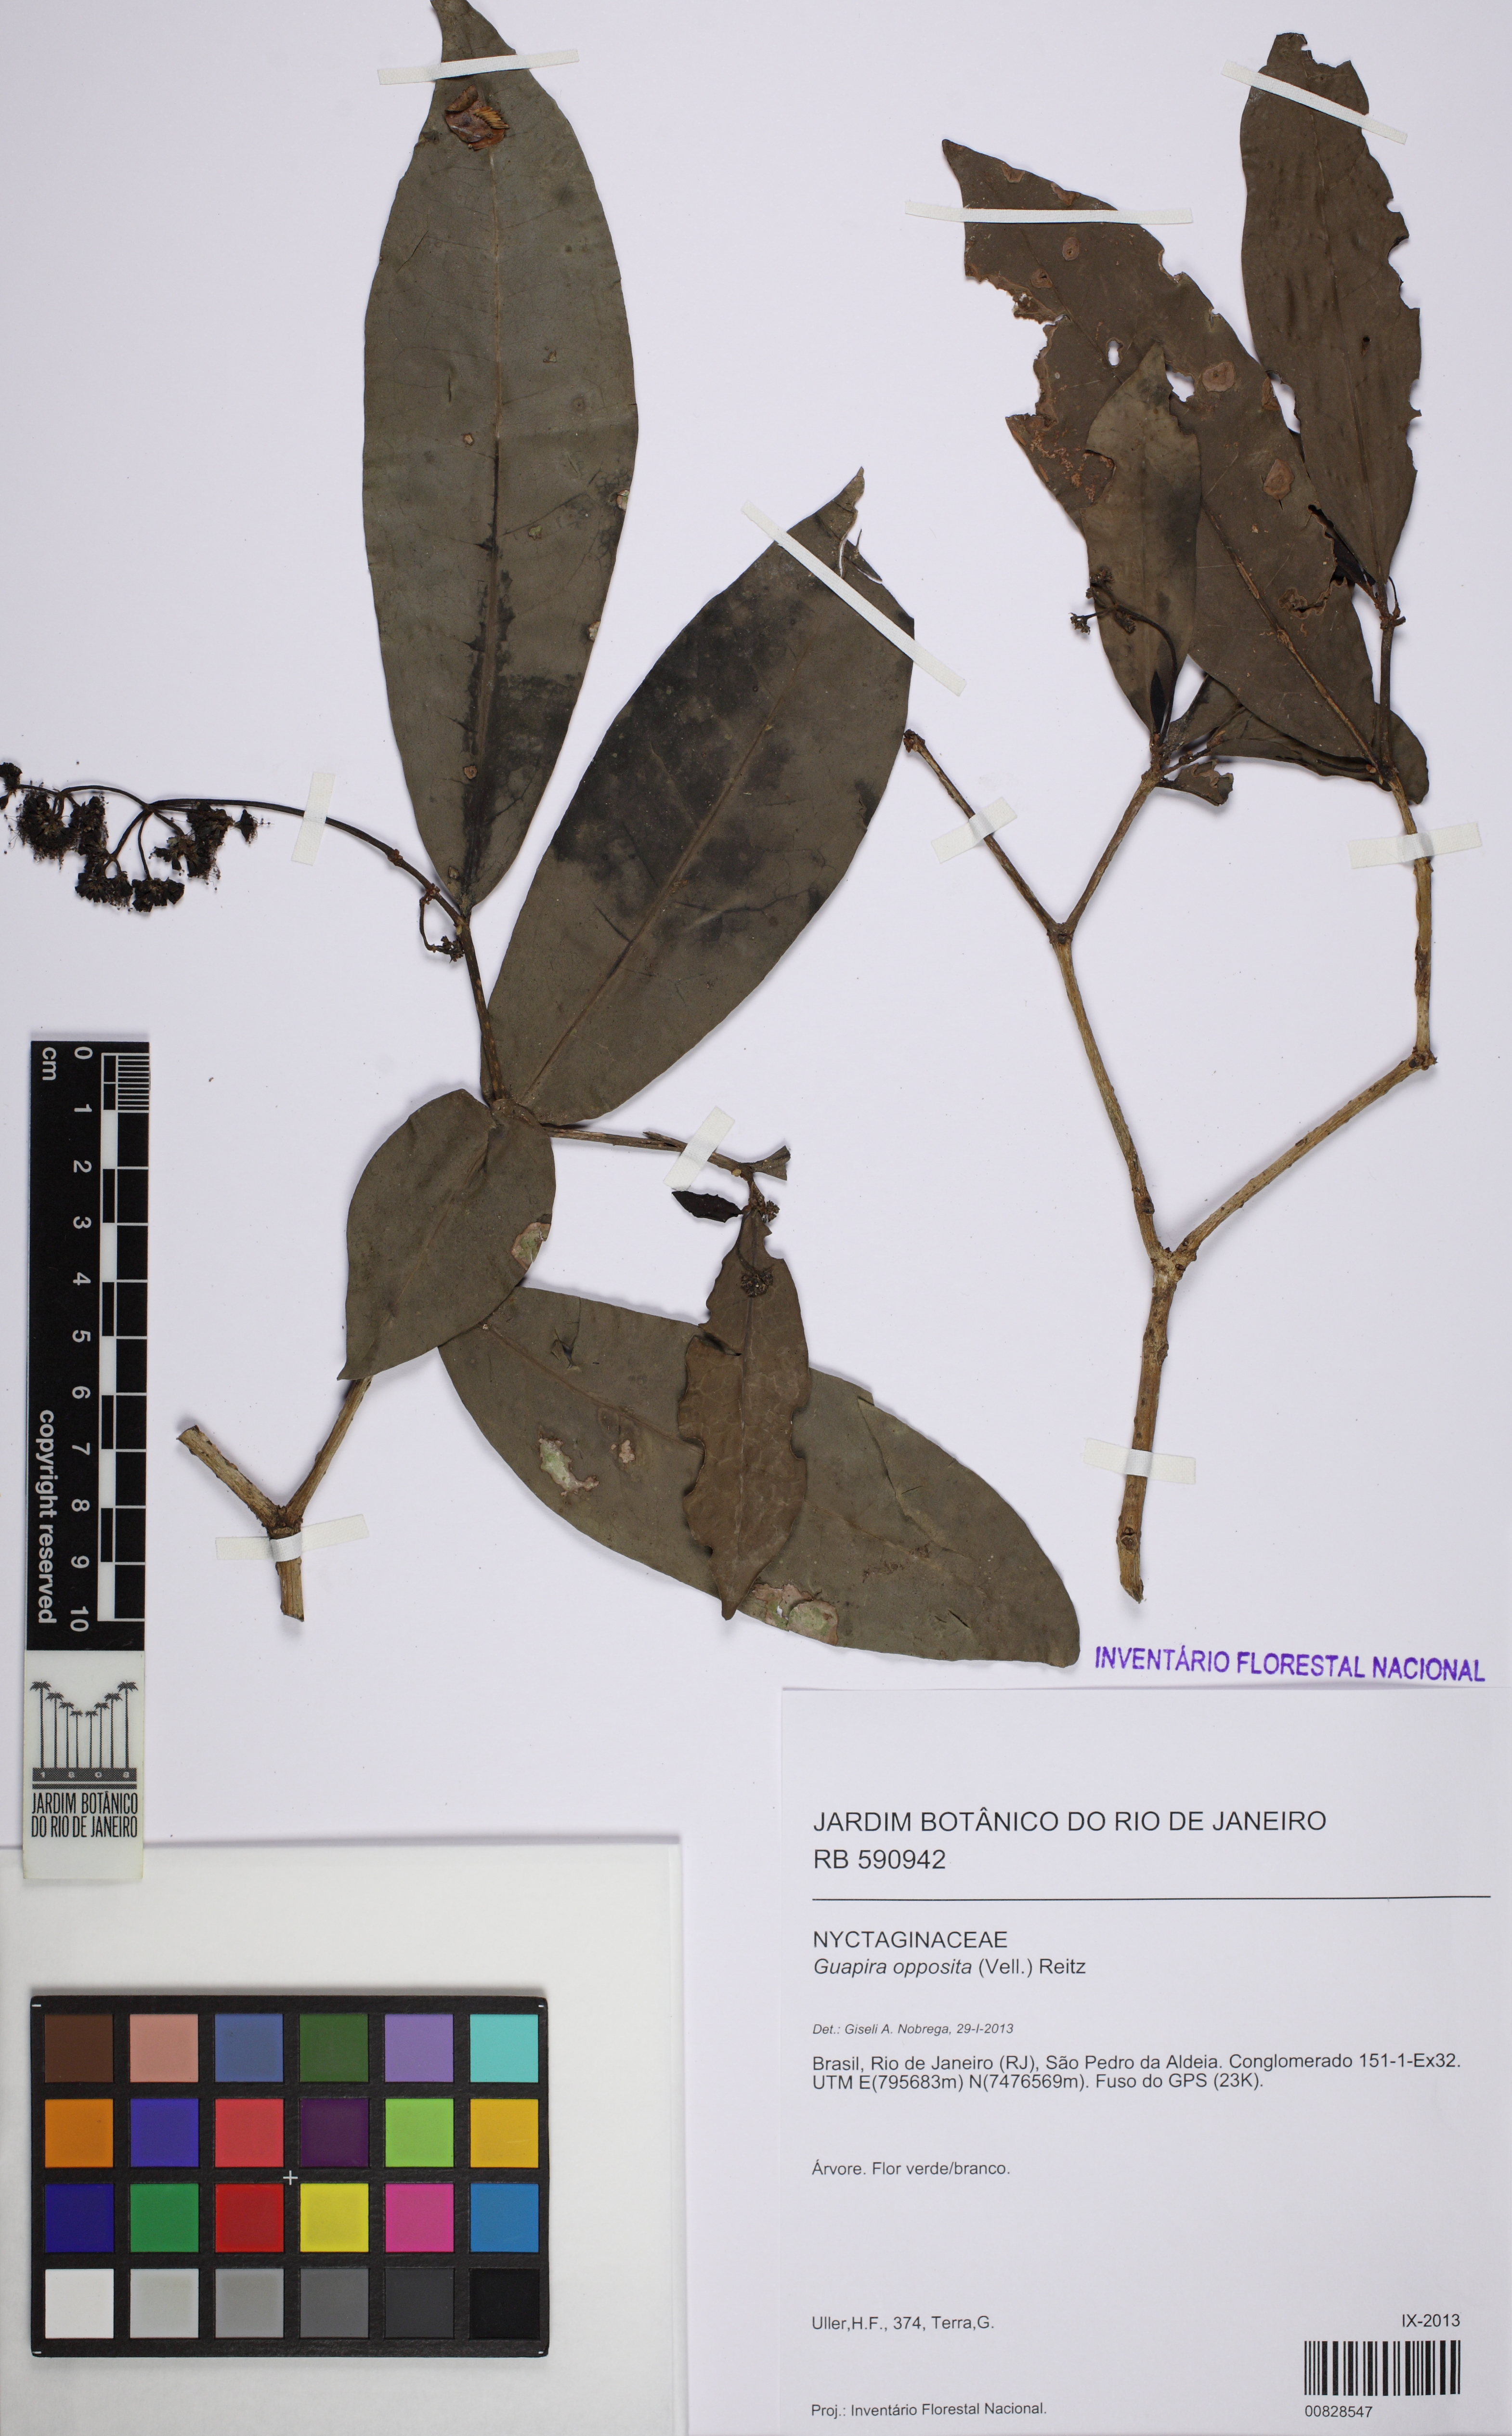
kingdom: Plantae
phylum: Tracheophyta
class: Magnoliopsida
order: Caryophyllales
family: Nyctaginaceae
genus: Guapira
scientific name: Guapira opposita
